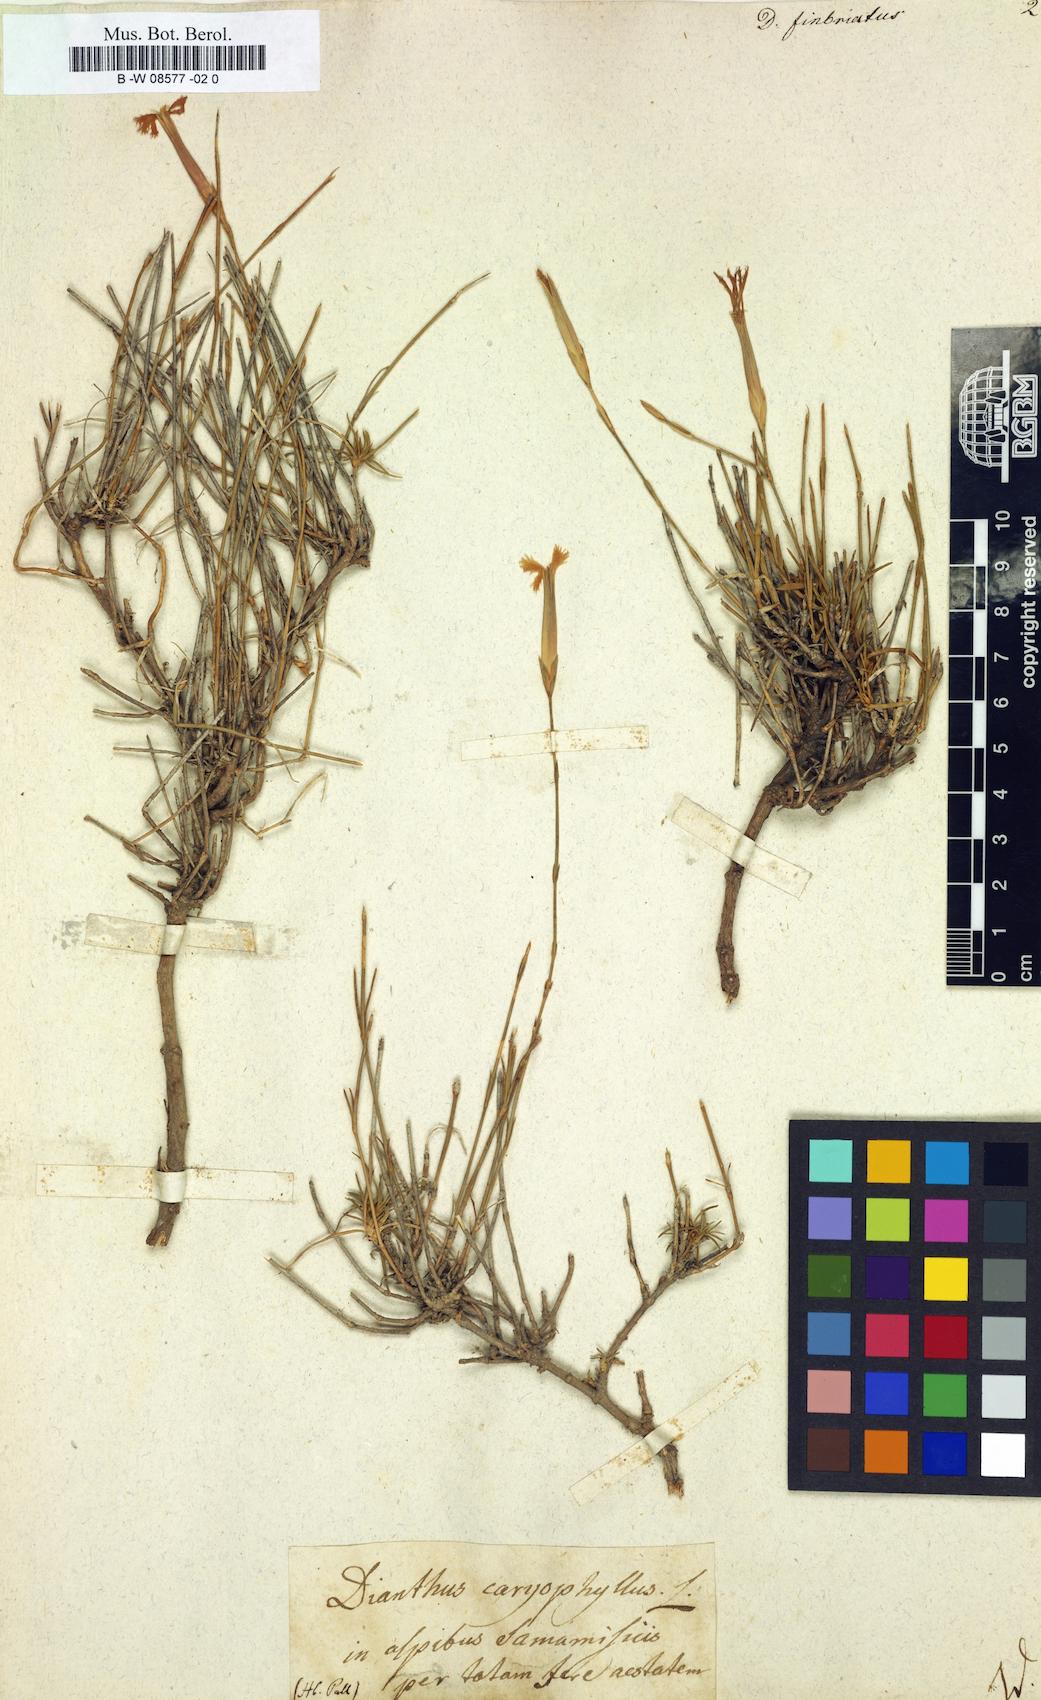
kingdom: Plantae
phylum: Tracheophyta
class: Magnoliopsida
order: Caryophyllales
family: Caryophyllaceae
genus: Dianthus
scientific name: Dianthus
